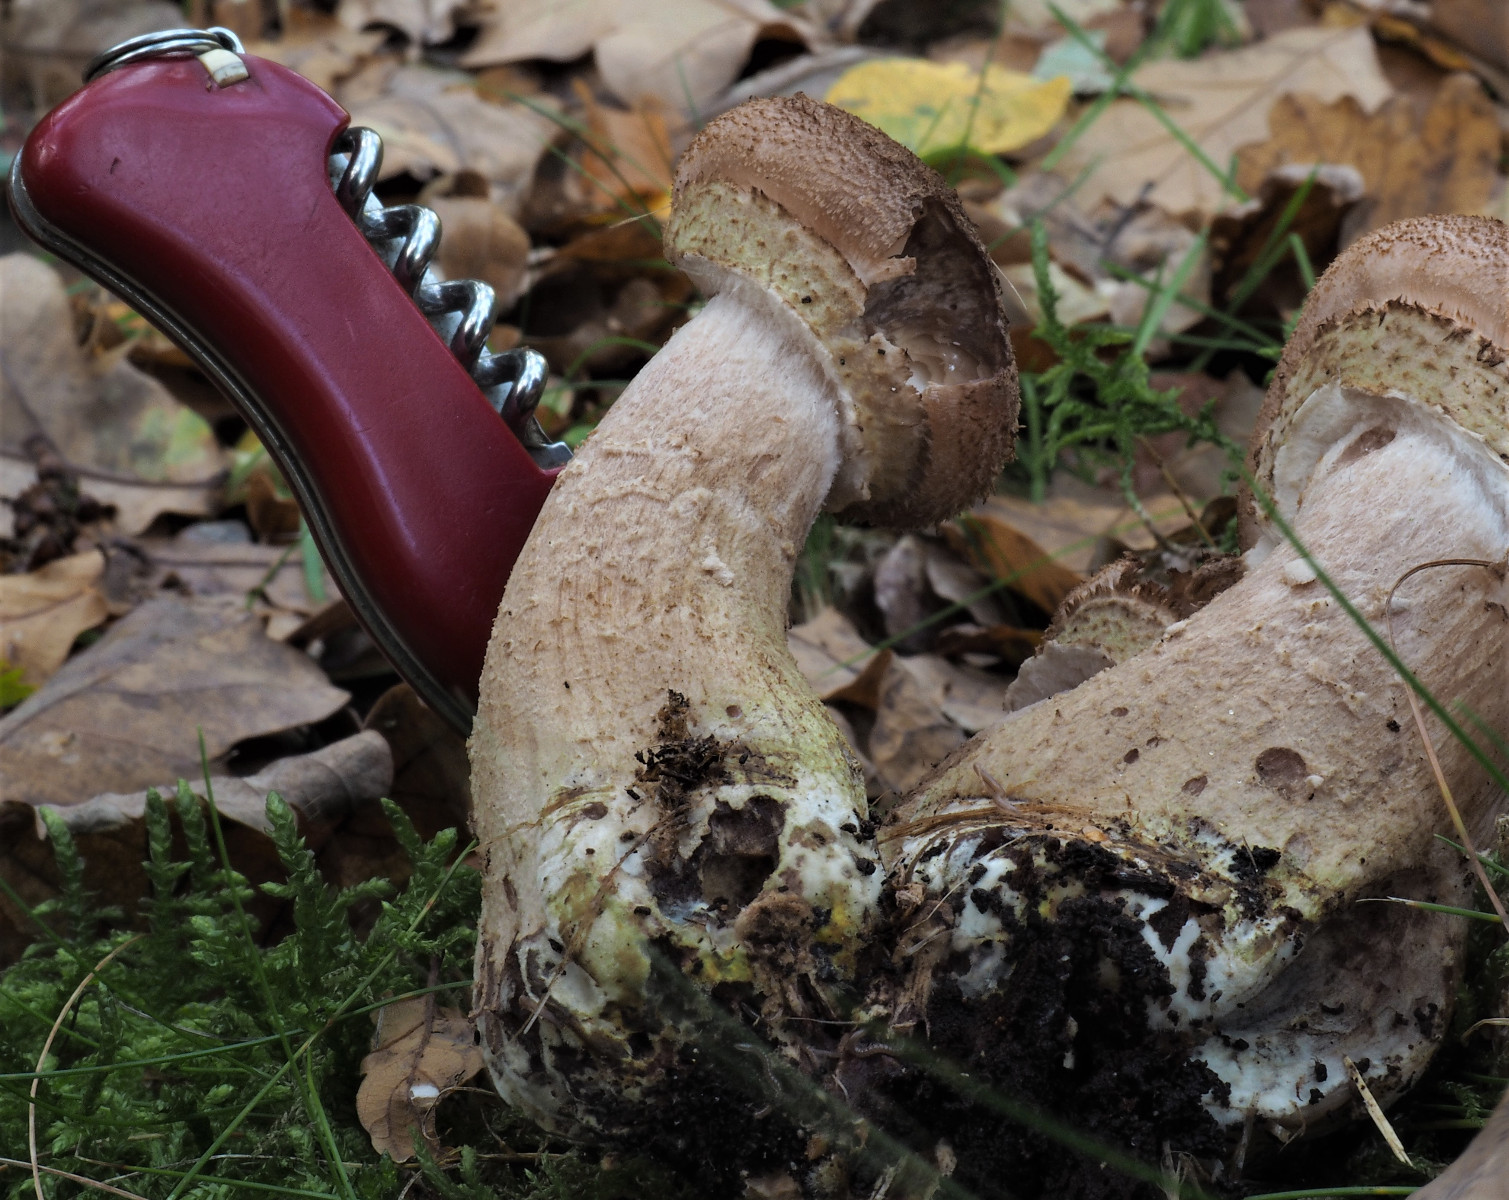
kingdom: Fungi
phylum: Basidiomycota
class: Agaricomycetes
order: Agaricales
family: Physalacriaceae
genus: Armillaria
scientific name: Armillaria ostoyae
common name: mørk honningsvamp
